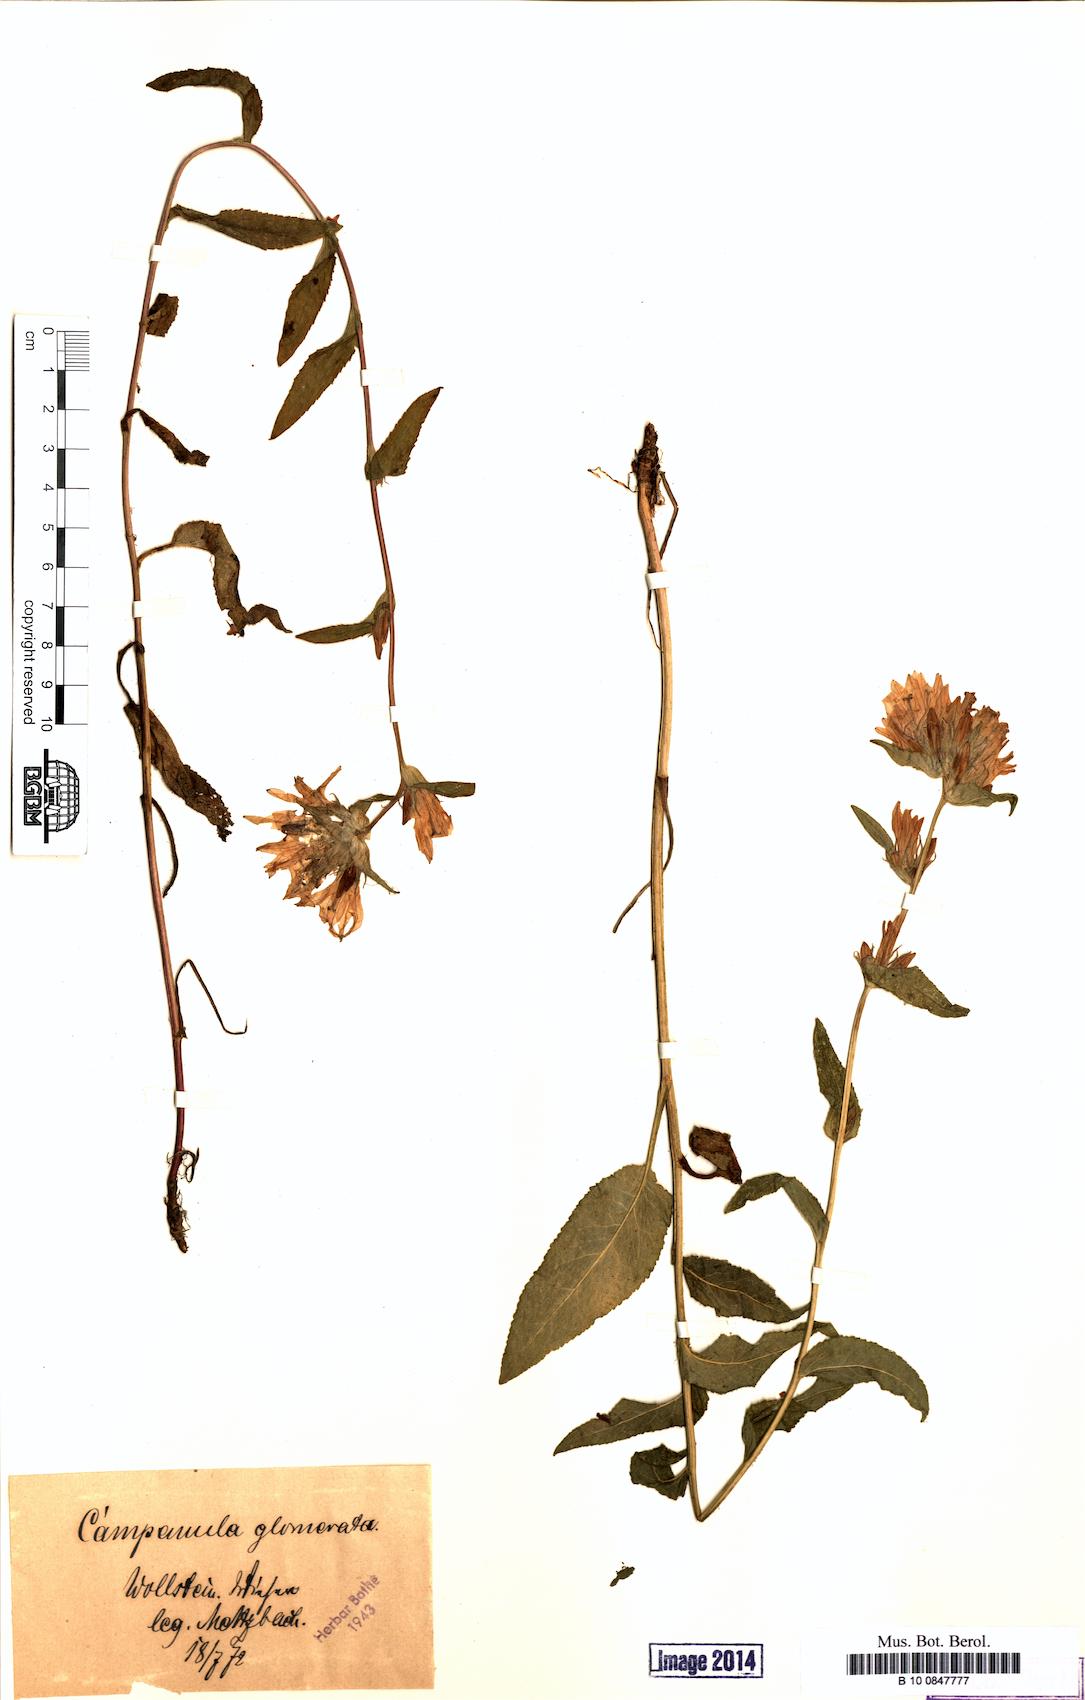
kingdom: Plantae
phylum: Tracheophyta
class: Magnoliopsida
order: Asterales
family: Campanulaceae
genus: Campanula
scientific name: Campanula glomerata
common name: Clustered bellflower
